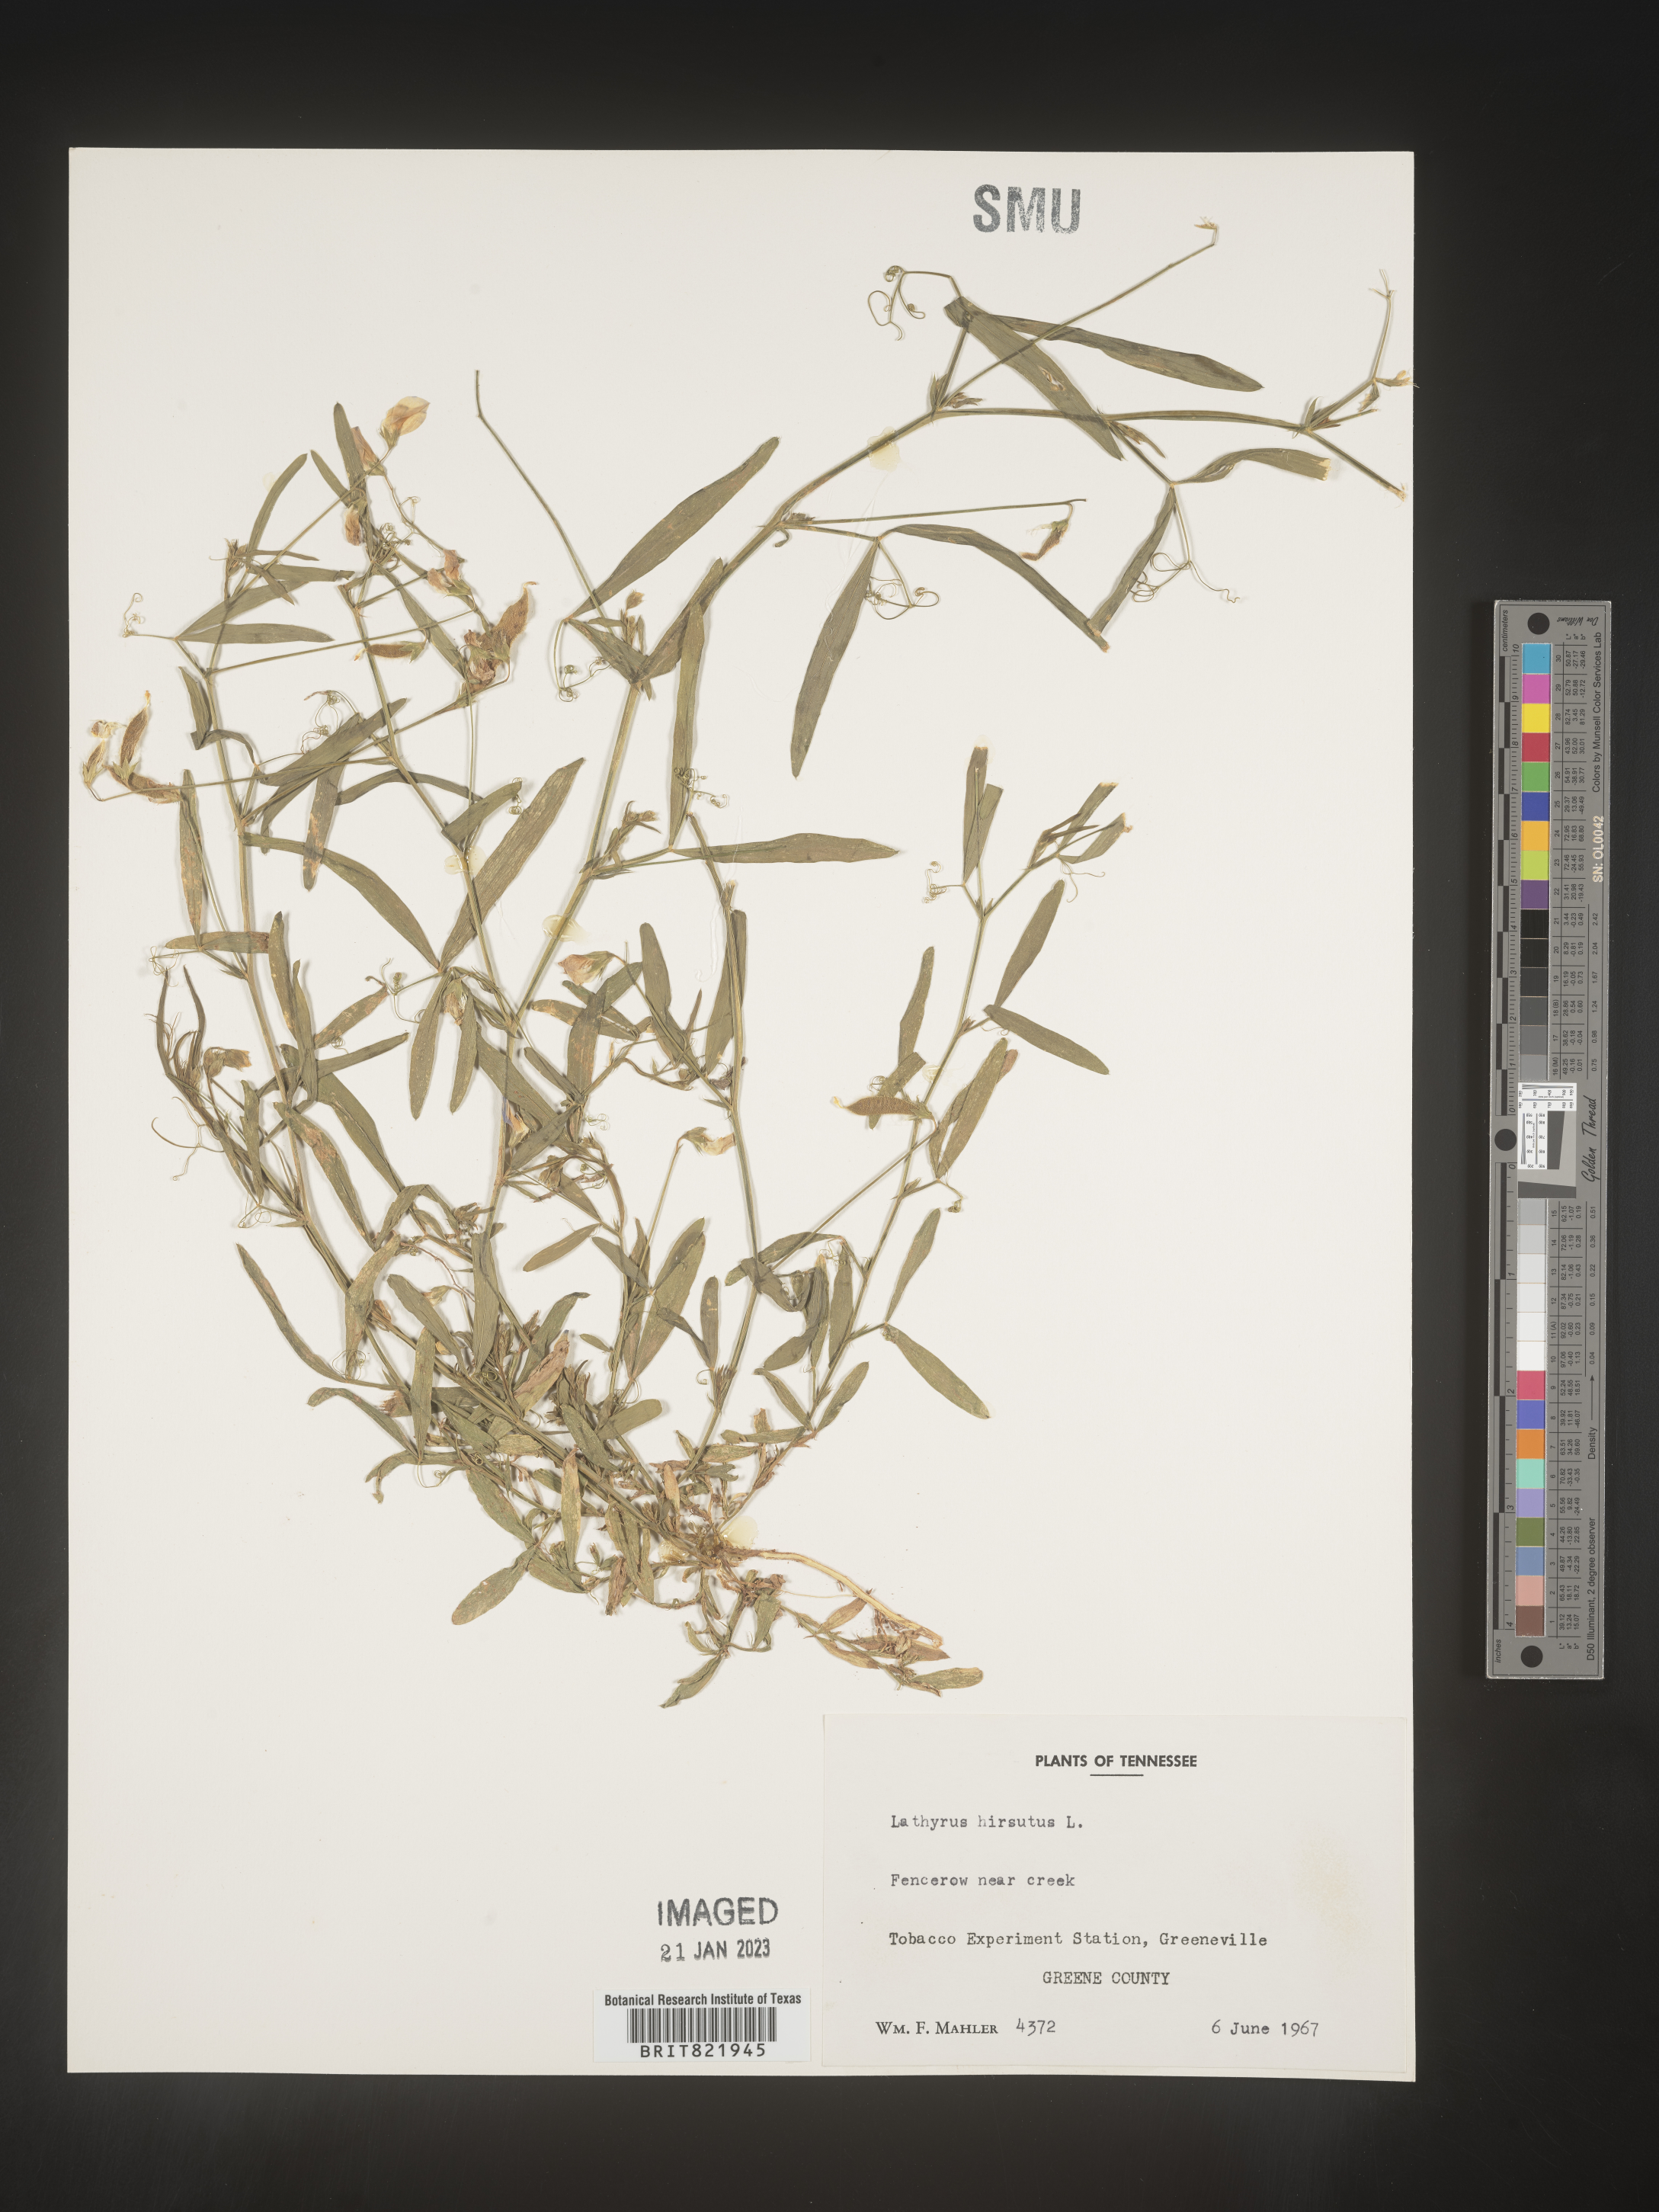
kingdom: Plantae
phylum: Tracheophyta
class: Magnoliopsida
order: Fabales
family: Fabaceae
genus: Lathyrus
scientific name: Lathyrus hirsutus
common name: Hairy vetchling
